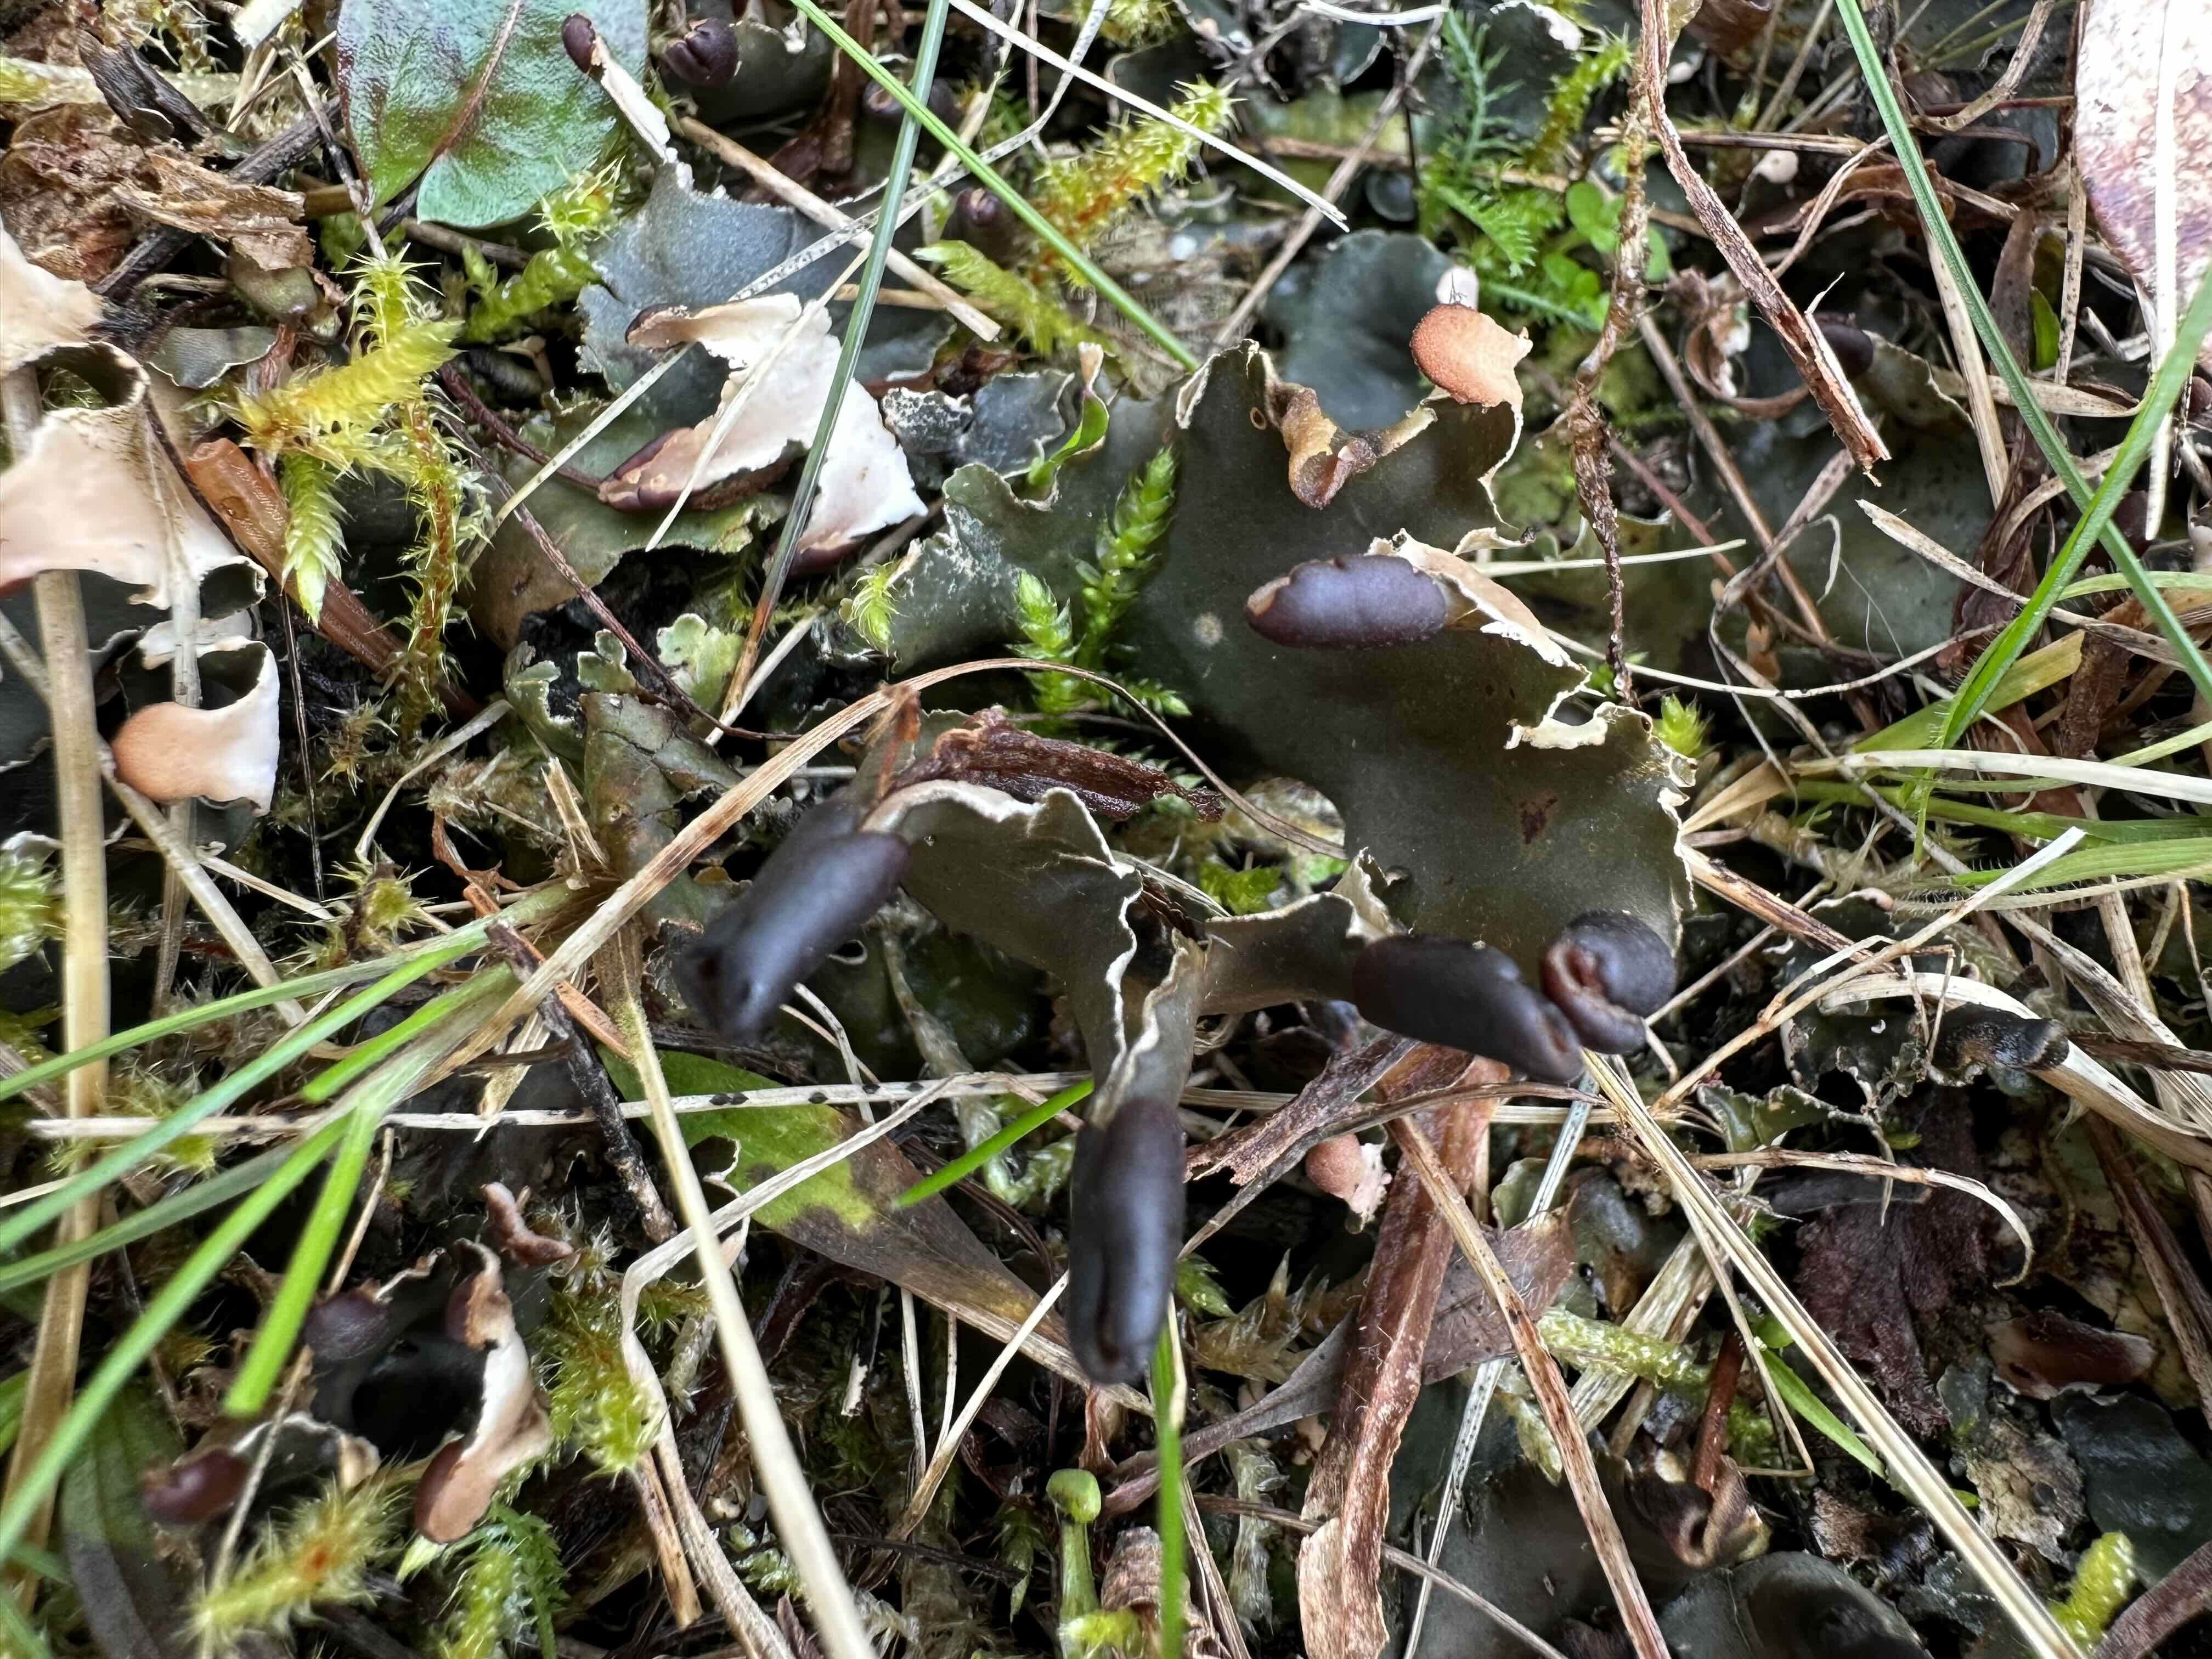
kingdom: Fungi
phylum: Ascomycota
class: Lecanoromycetes
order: Peltigerales
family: Peltigeraceae
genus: Peltigera
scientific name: Peltigera neckeri
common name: glinsende skjoldlav
